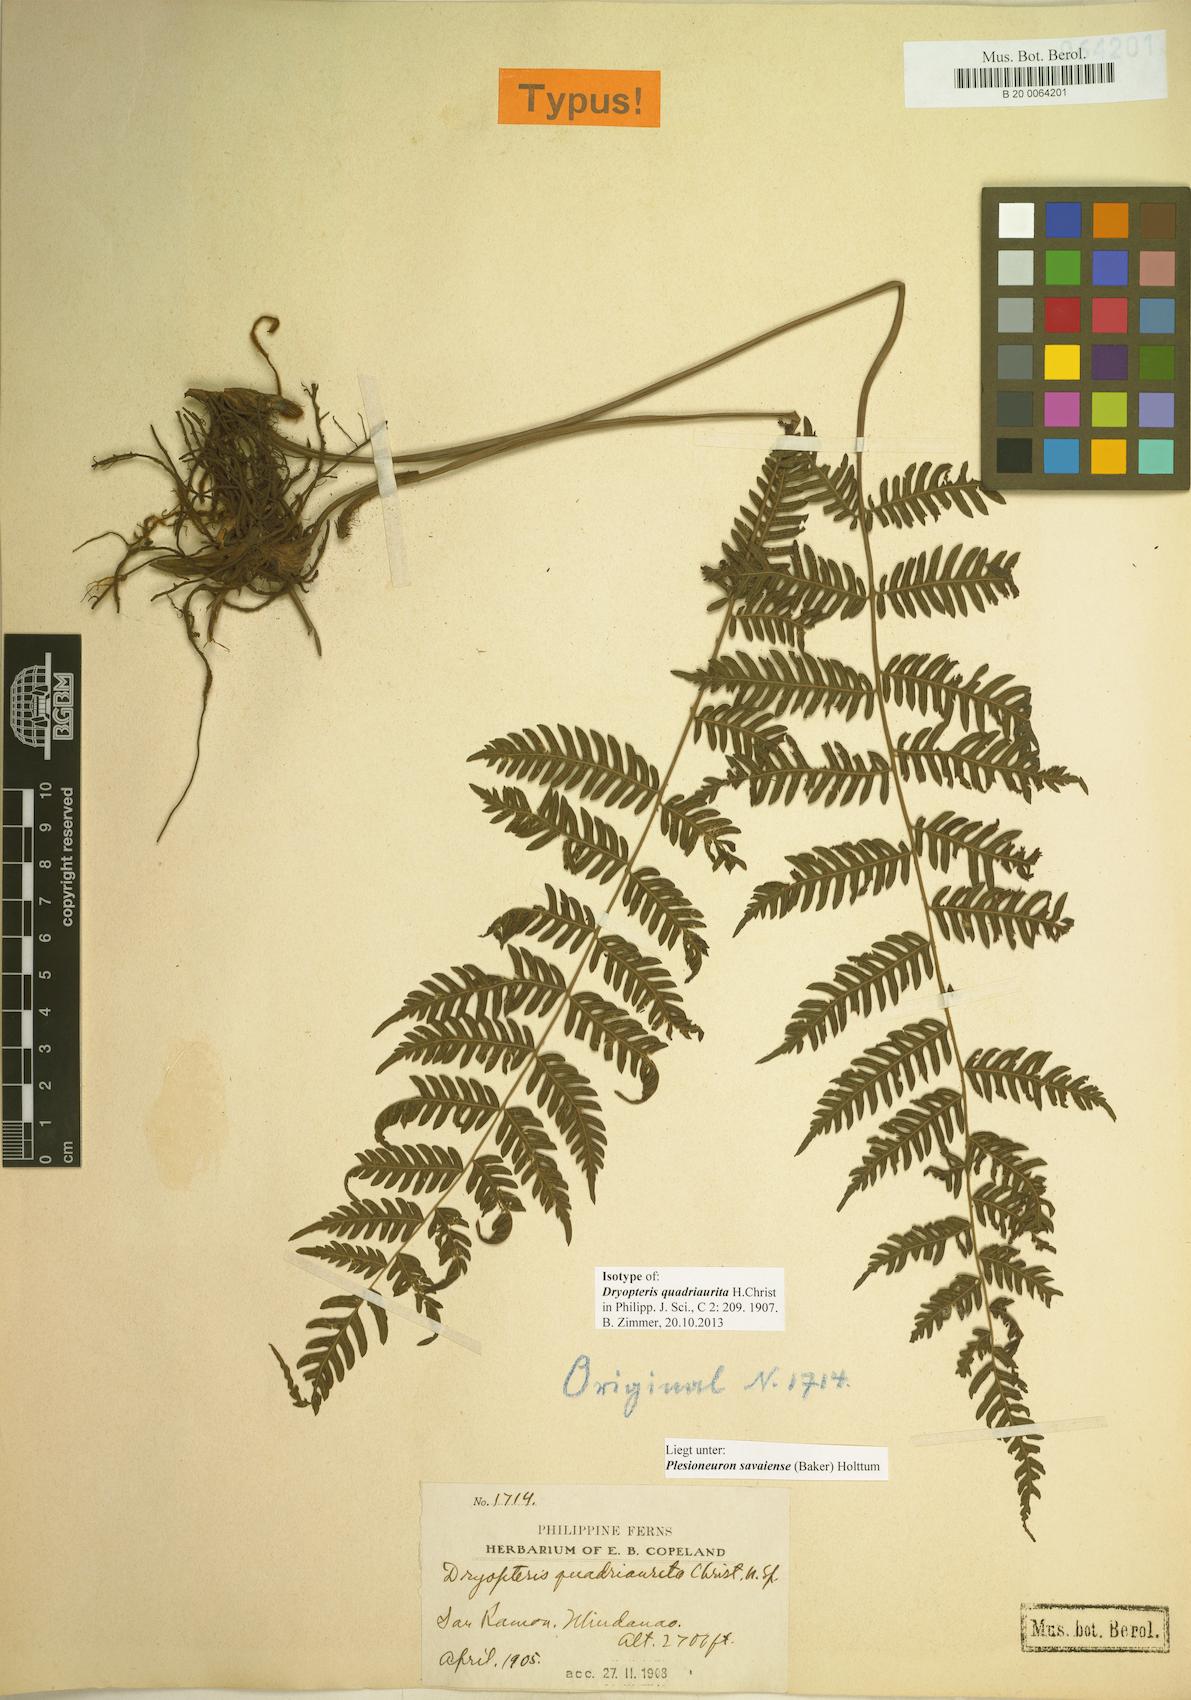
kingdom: Plantae
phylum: Tracheophyta
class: Polypodiopsida
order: Polypodiales
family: Thelypteridaceae
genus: Plesioneuron
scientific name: Plesioneuron savaiense
